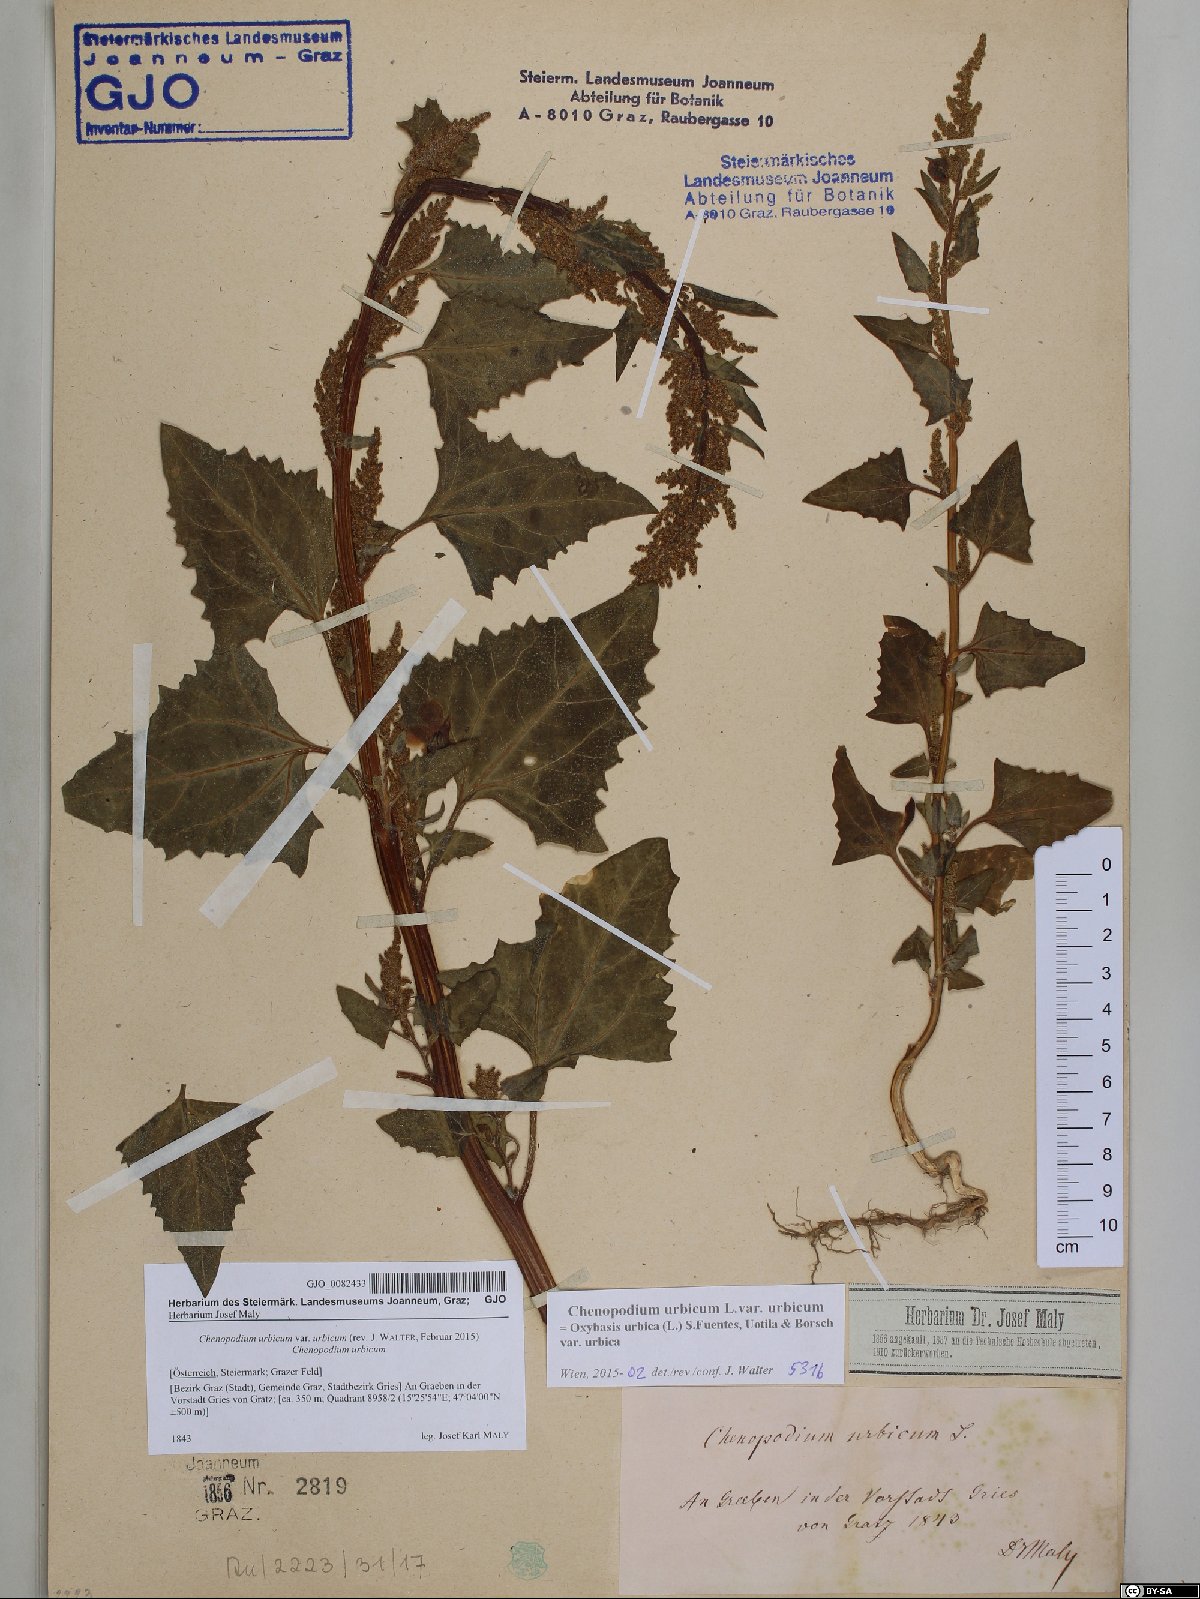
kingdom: Plantae
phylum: Tracheophyta
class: Magnoliopsida
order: Caryophyllales
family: Amaranthaceae
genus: Oxybasis
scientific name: Oxybasis urbica
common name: City goosefoot
